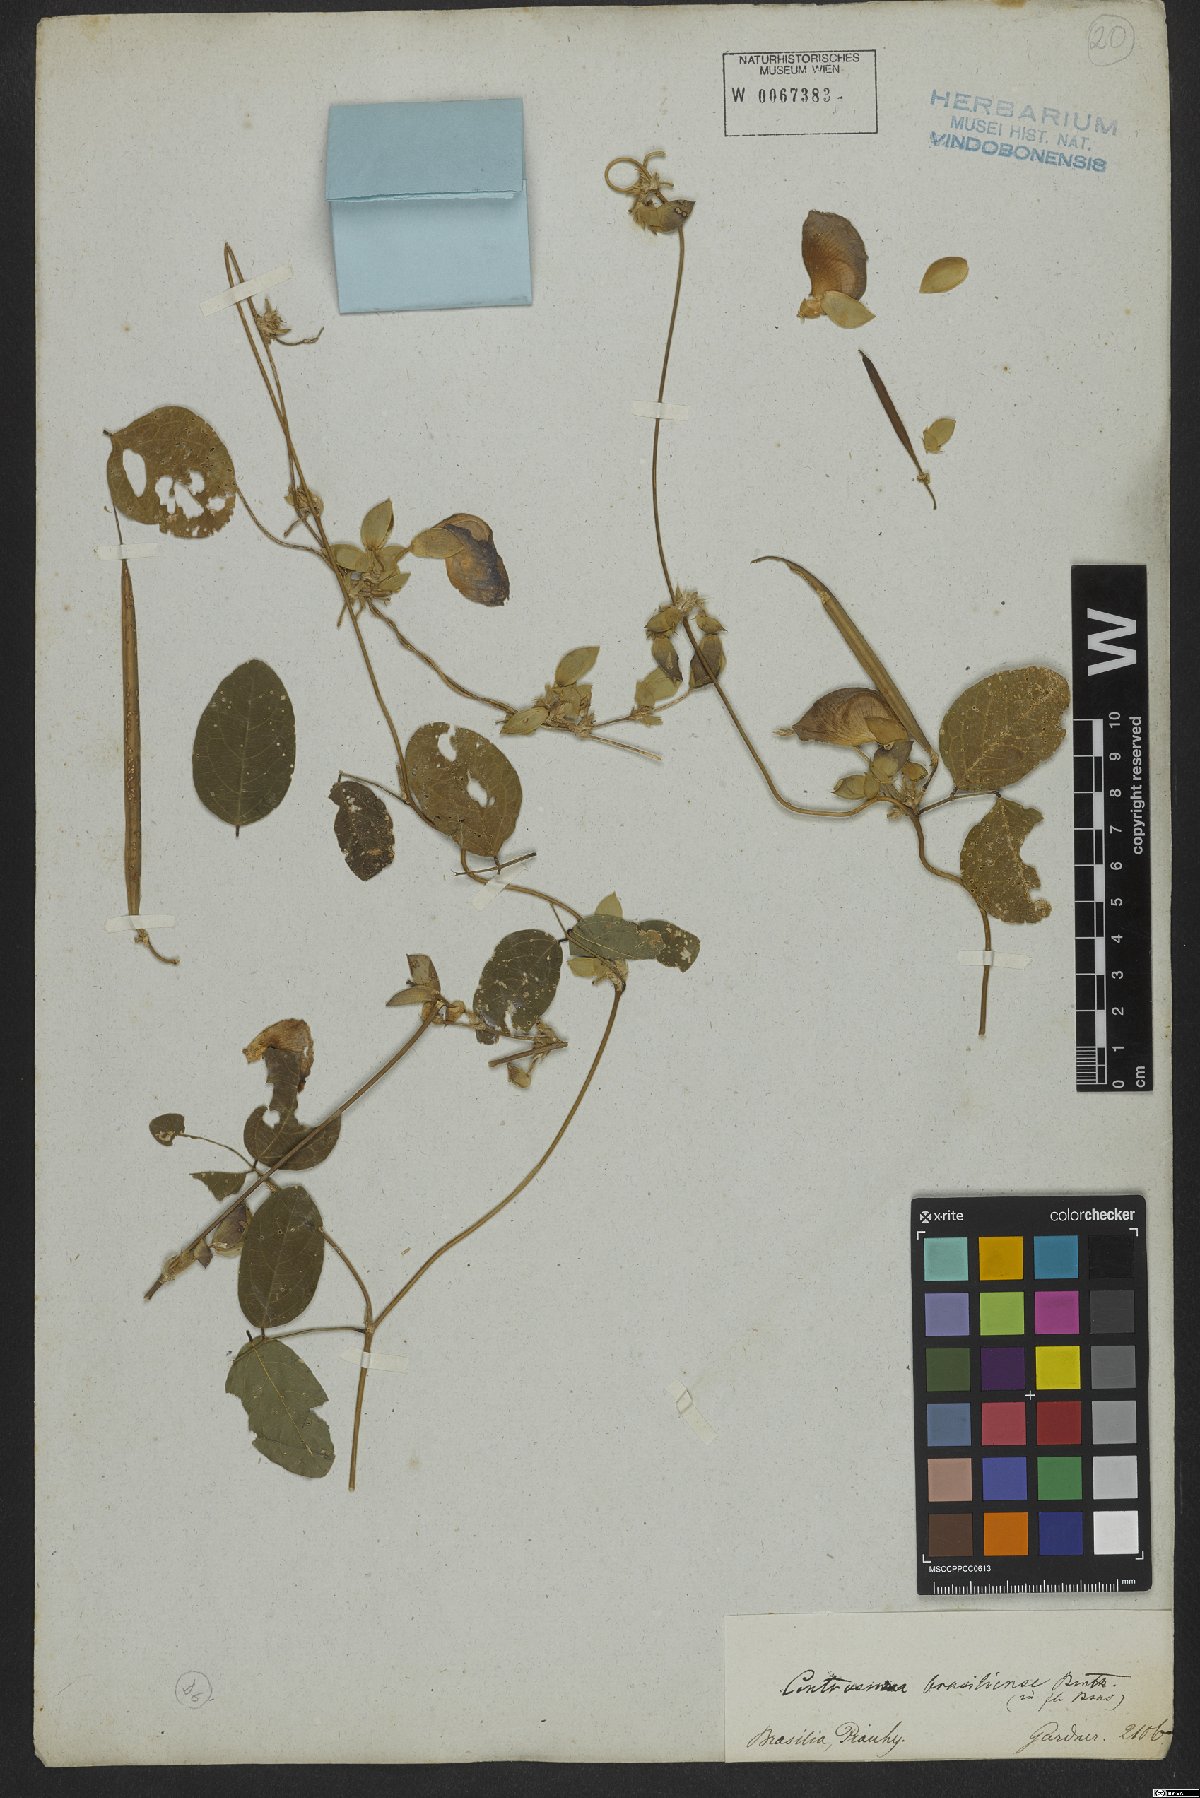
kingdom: Plantae
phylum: Tracheophyta
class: Magnoliopsida
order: Fabales
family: Fabaceae
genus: Centrosema
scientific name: Centrosema brasilianum
